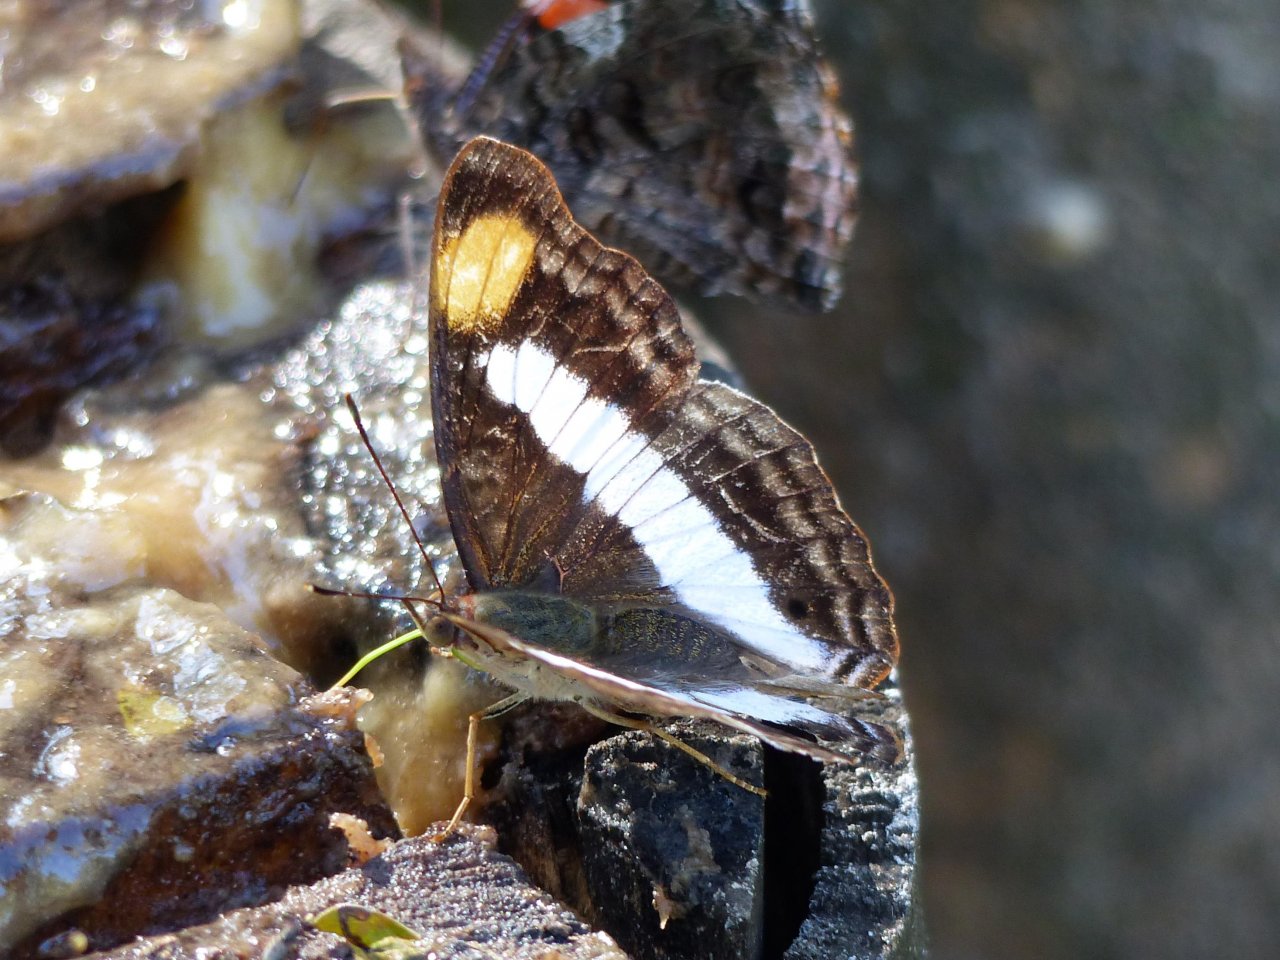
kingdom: Animalia
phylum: Arthropoda
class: Insecta
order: Lepidoptera
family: Nymphalidae
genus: Doxocopa
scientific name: Doxocopa pavon
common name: Pavon Emperor
